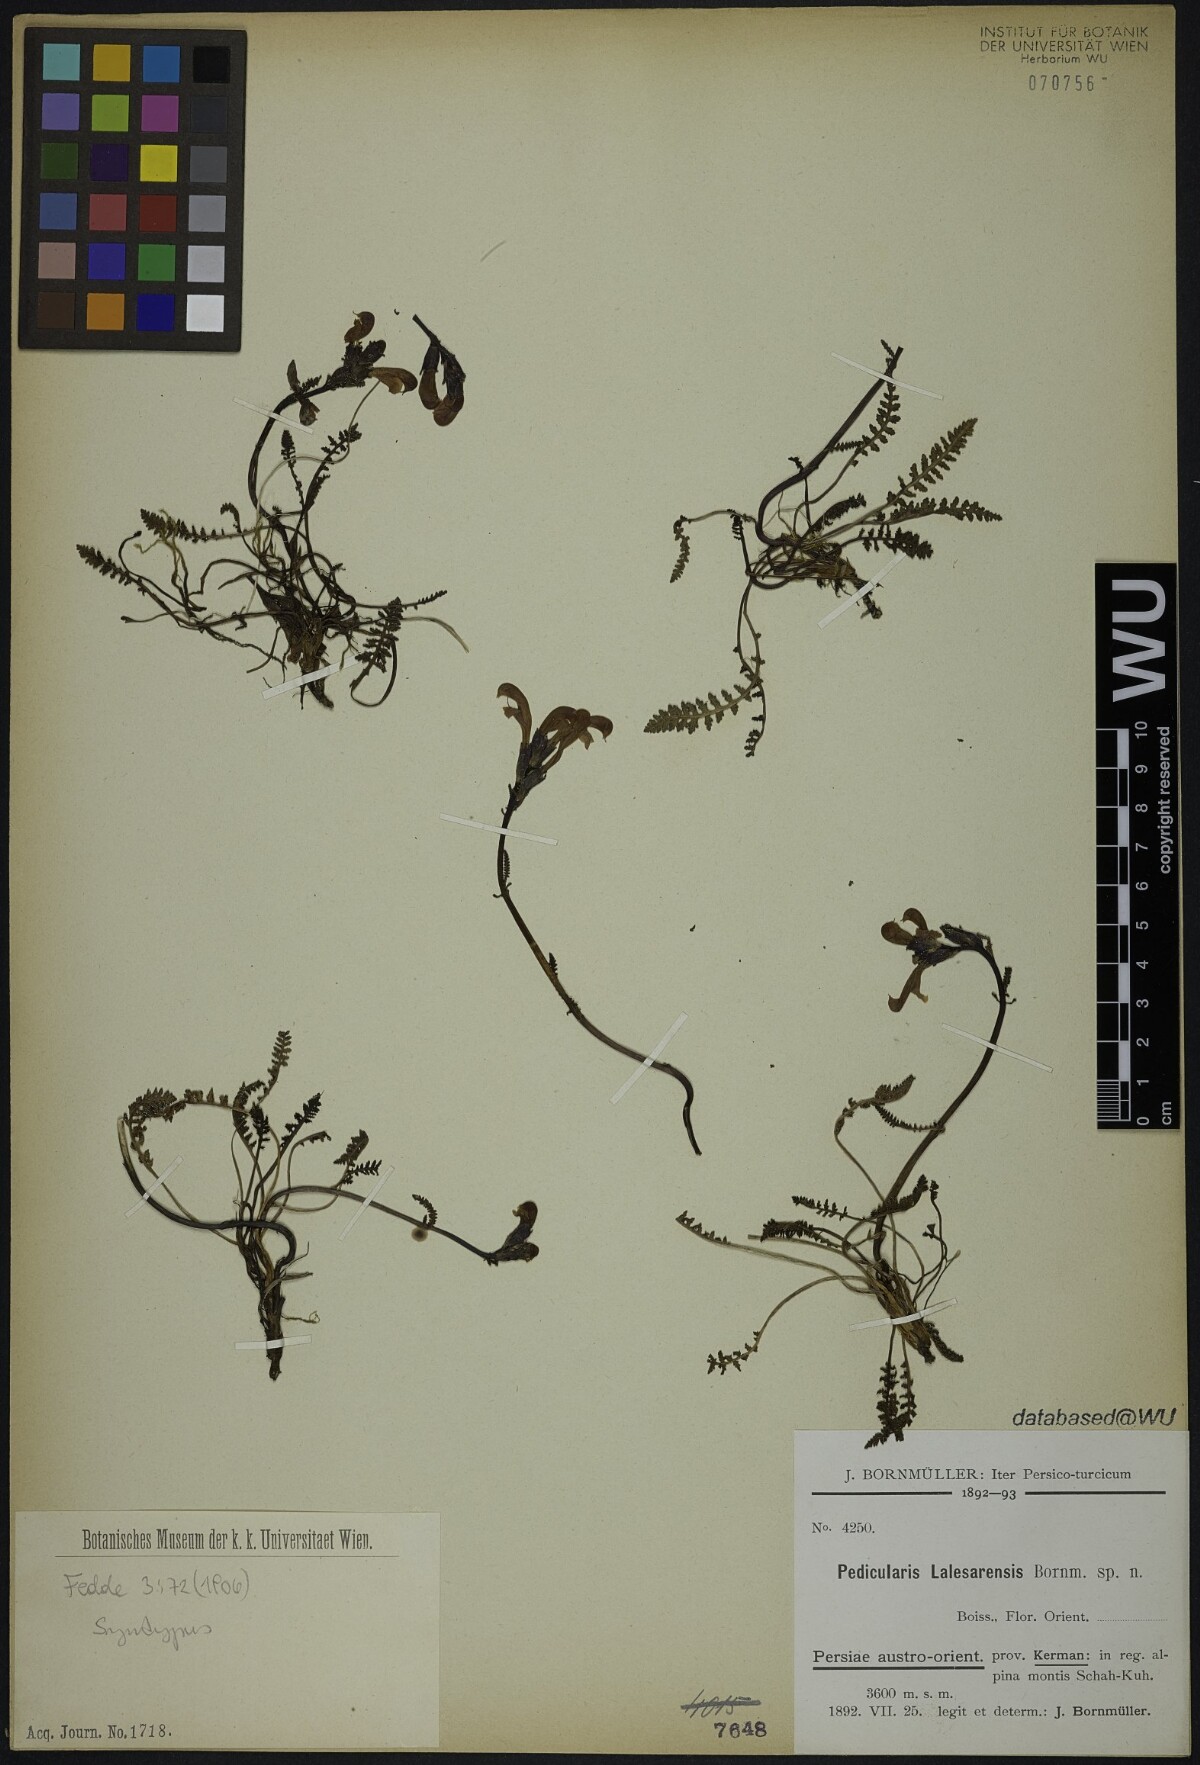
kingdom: Plantae
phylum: Tracheophyta
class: Magnoliopsida
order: Lamiales
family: Orobanchaceae
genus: Pedicularis
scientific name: Pedicularis cabulica
